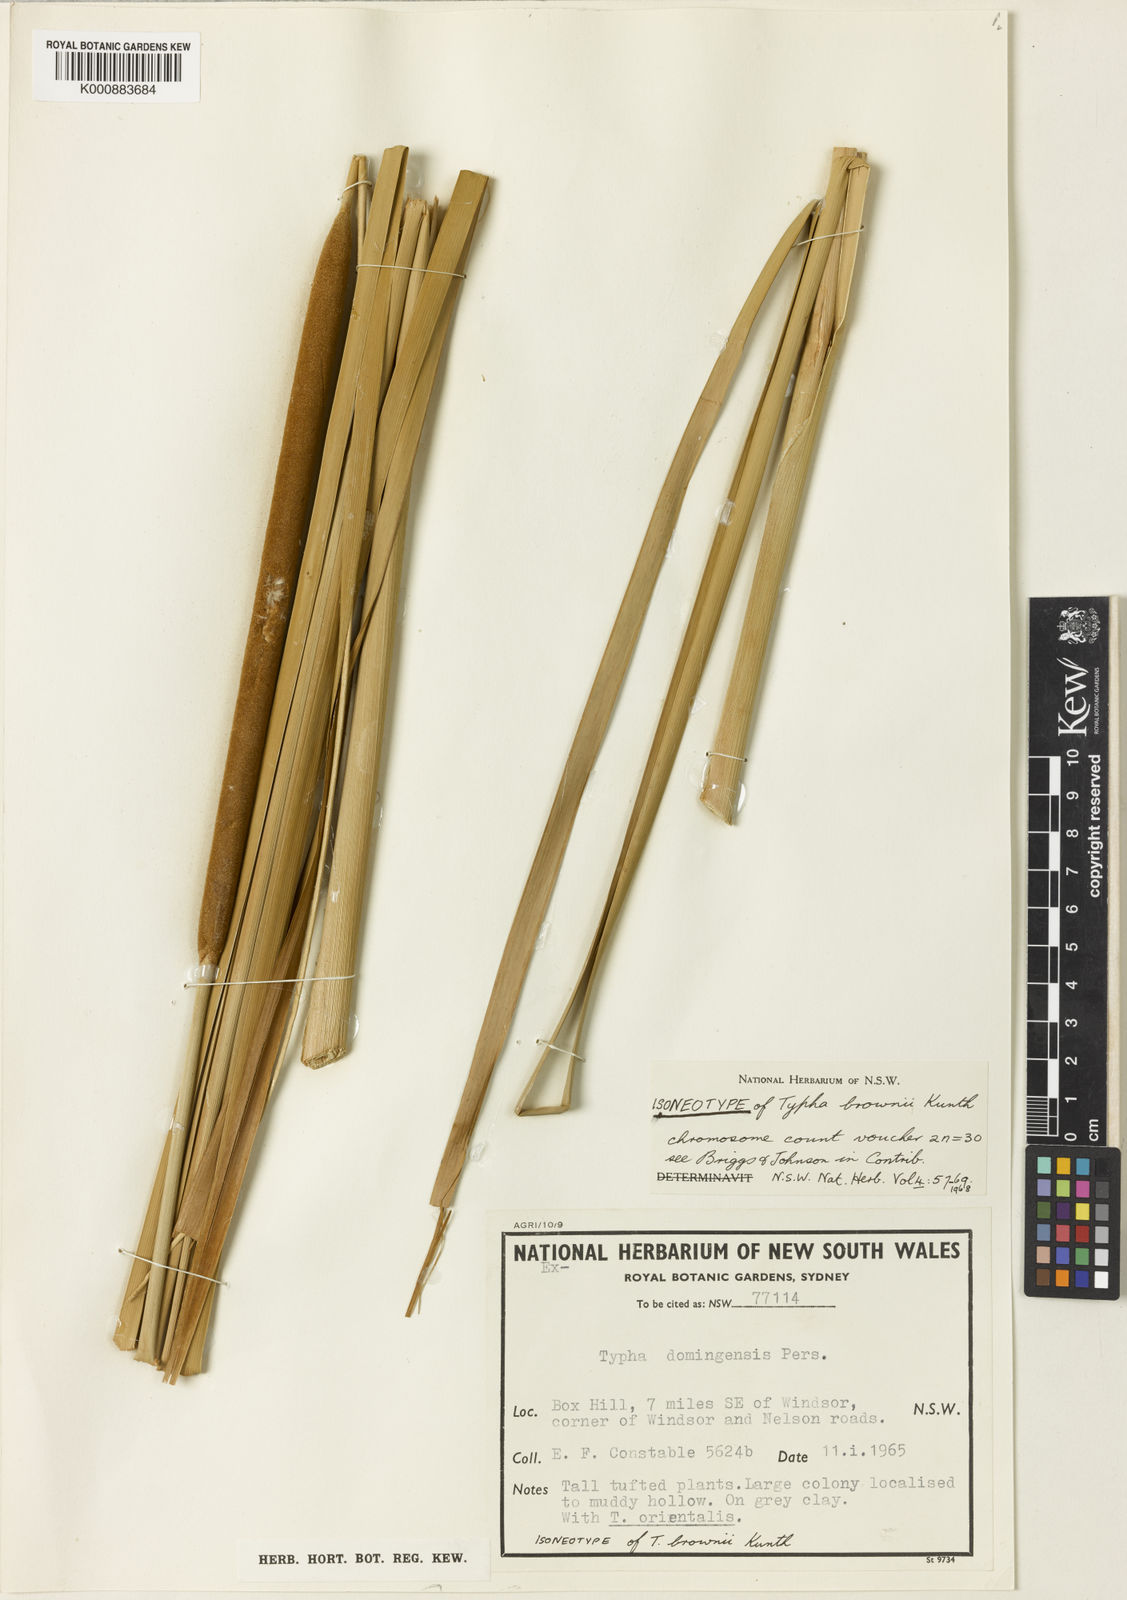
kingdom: Plantae
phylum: Tracheophyta
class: Liliopsida
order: Poales
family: Typhaceae
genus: Typha
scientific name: Typha domingensis
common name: Southern cattail
